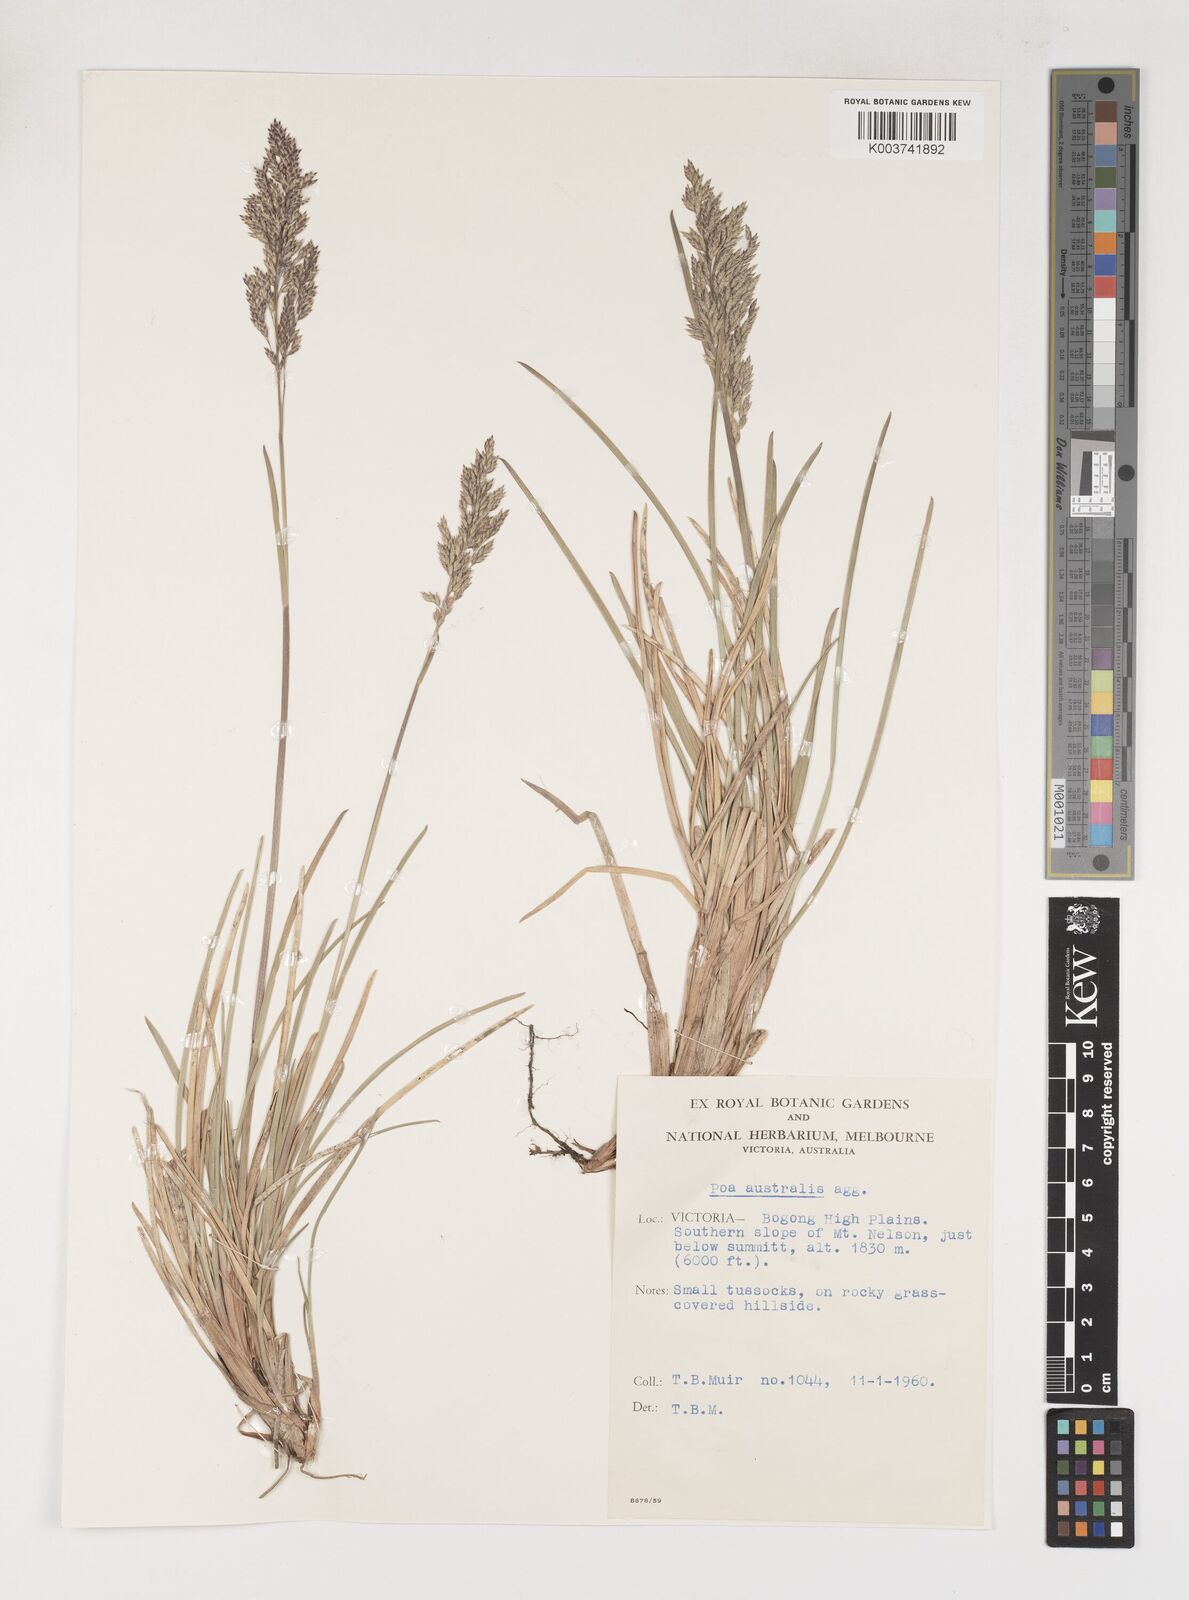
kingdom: Plantae
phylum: Tracheophyta
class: Liliopsida
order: Poales
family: Poaceae
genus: Poa
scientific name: Poa sieberiana
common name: Tussock poa
